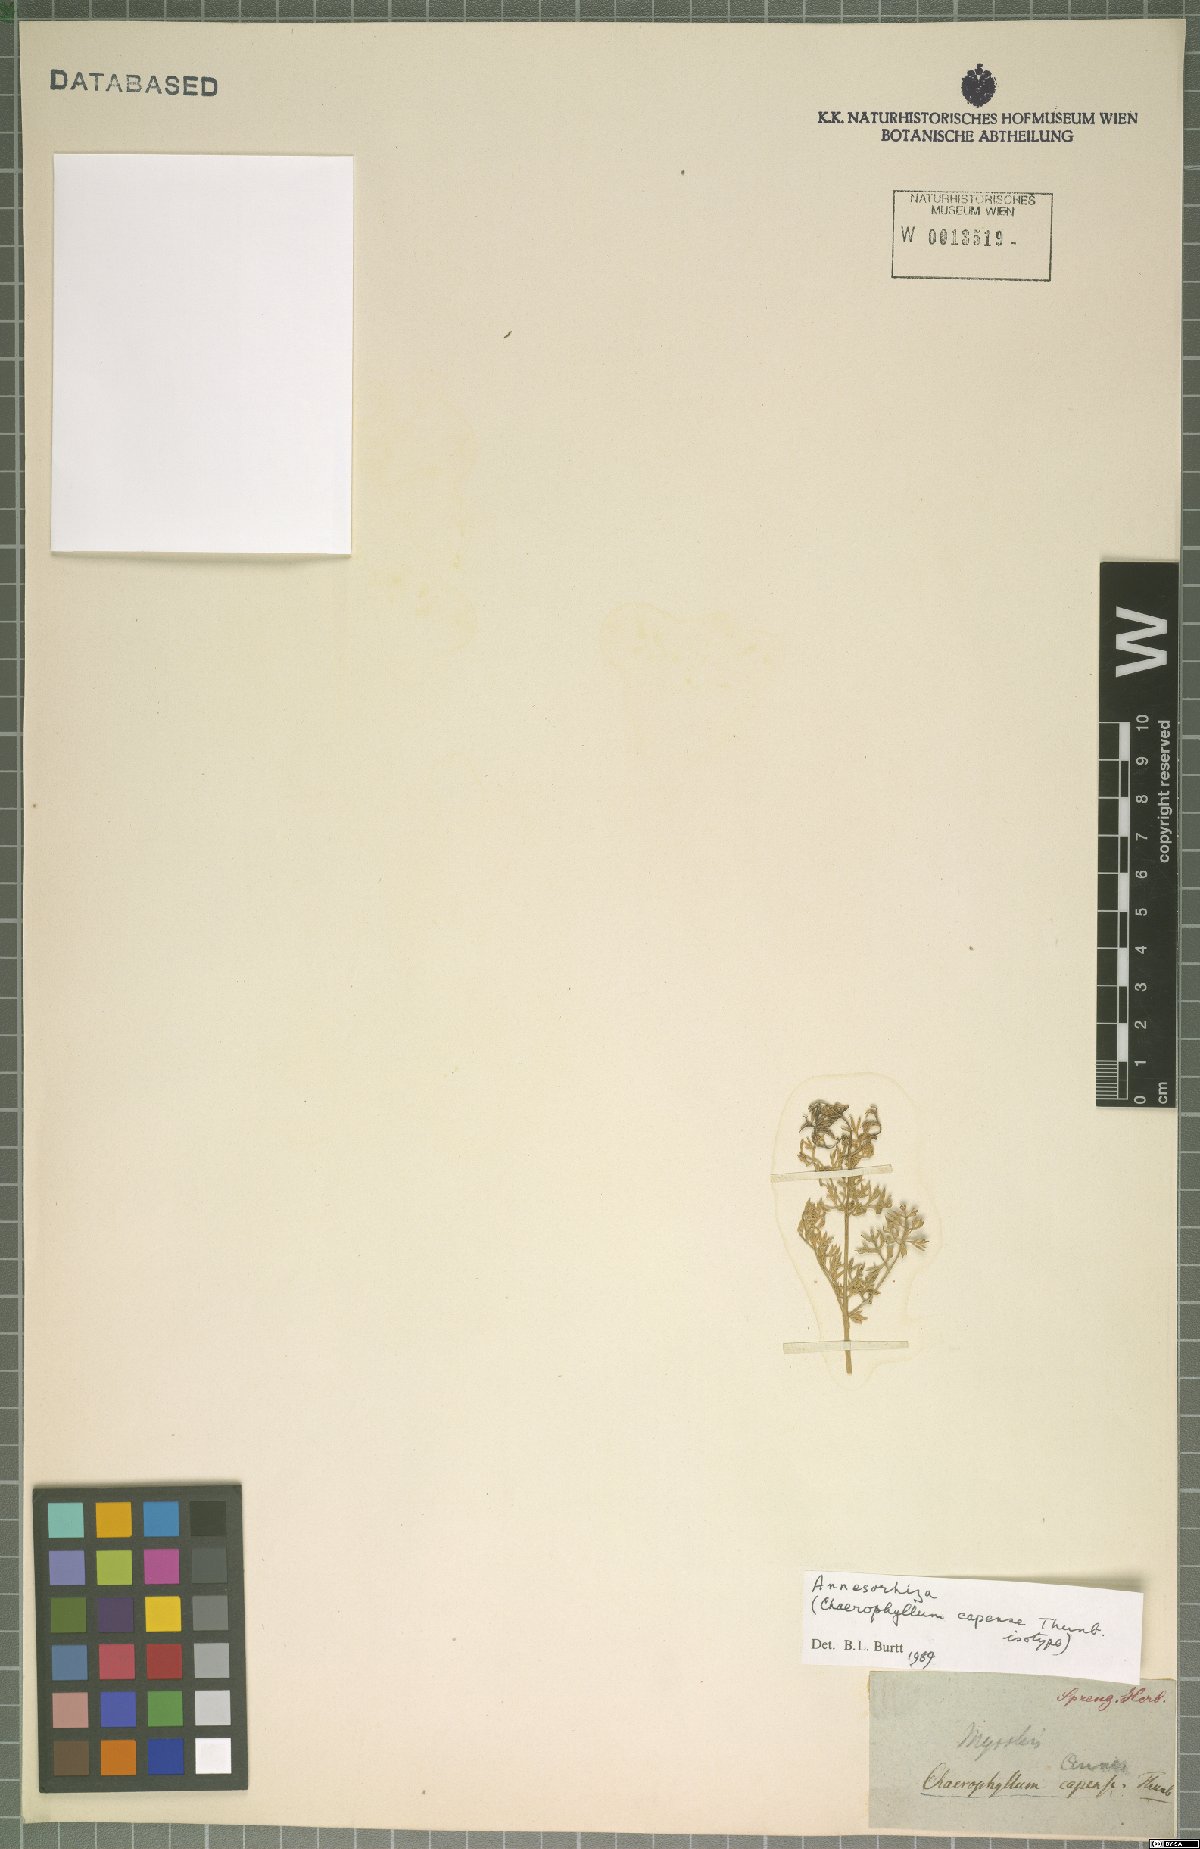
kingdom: Plantae
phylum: Tracheophyta
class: Magnoliopsida
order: Apiales
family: Apiaceae
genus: Annesorhiza
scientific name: Annesorhiza thunbergii
